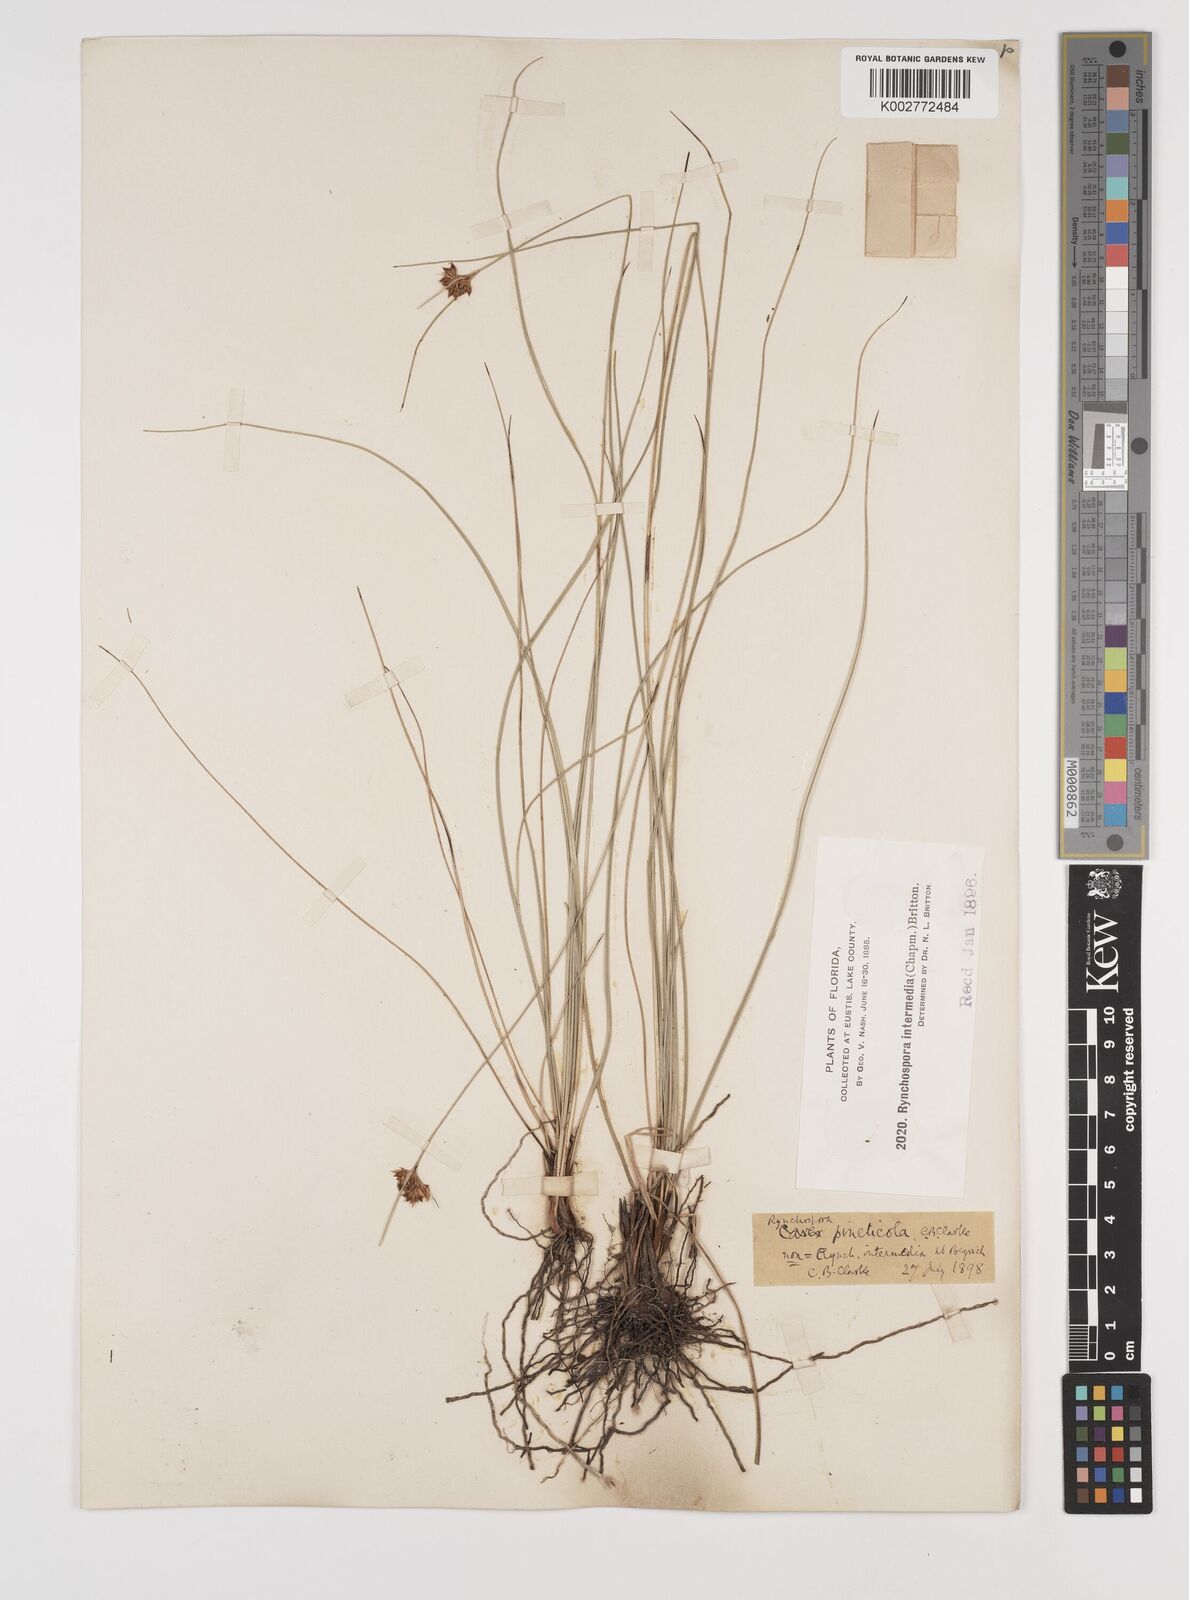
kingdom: Plantae
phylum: Tracheophyta
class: Liliopsida
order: Poales
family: Cyperaceae
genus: Rhynchospora
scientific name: Rhynchospora intermedia
